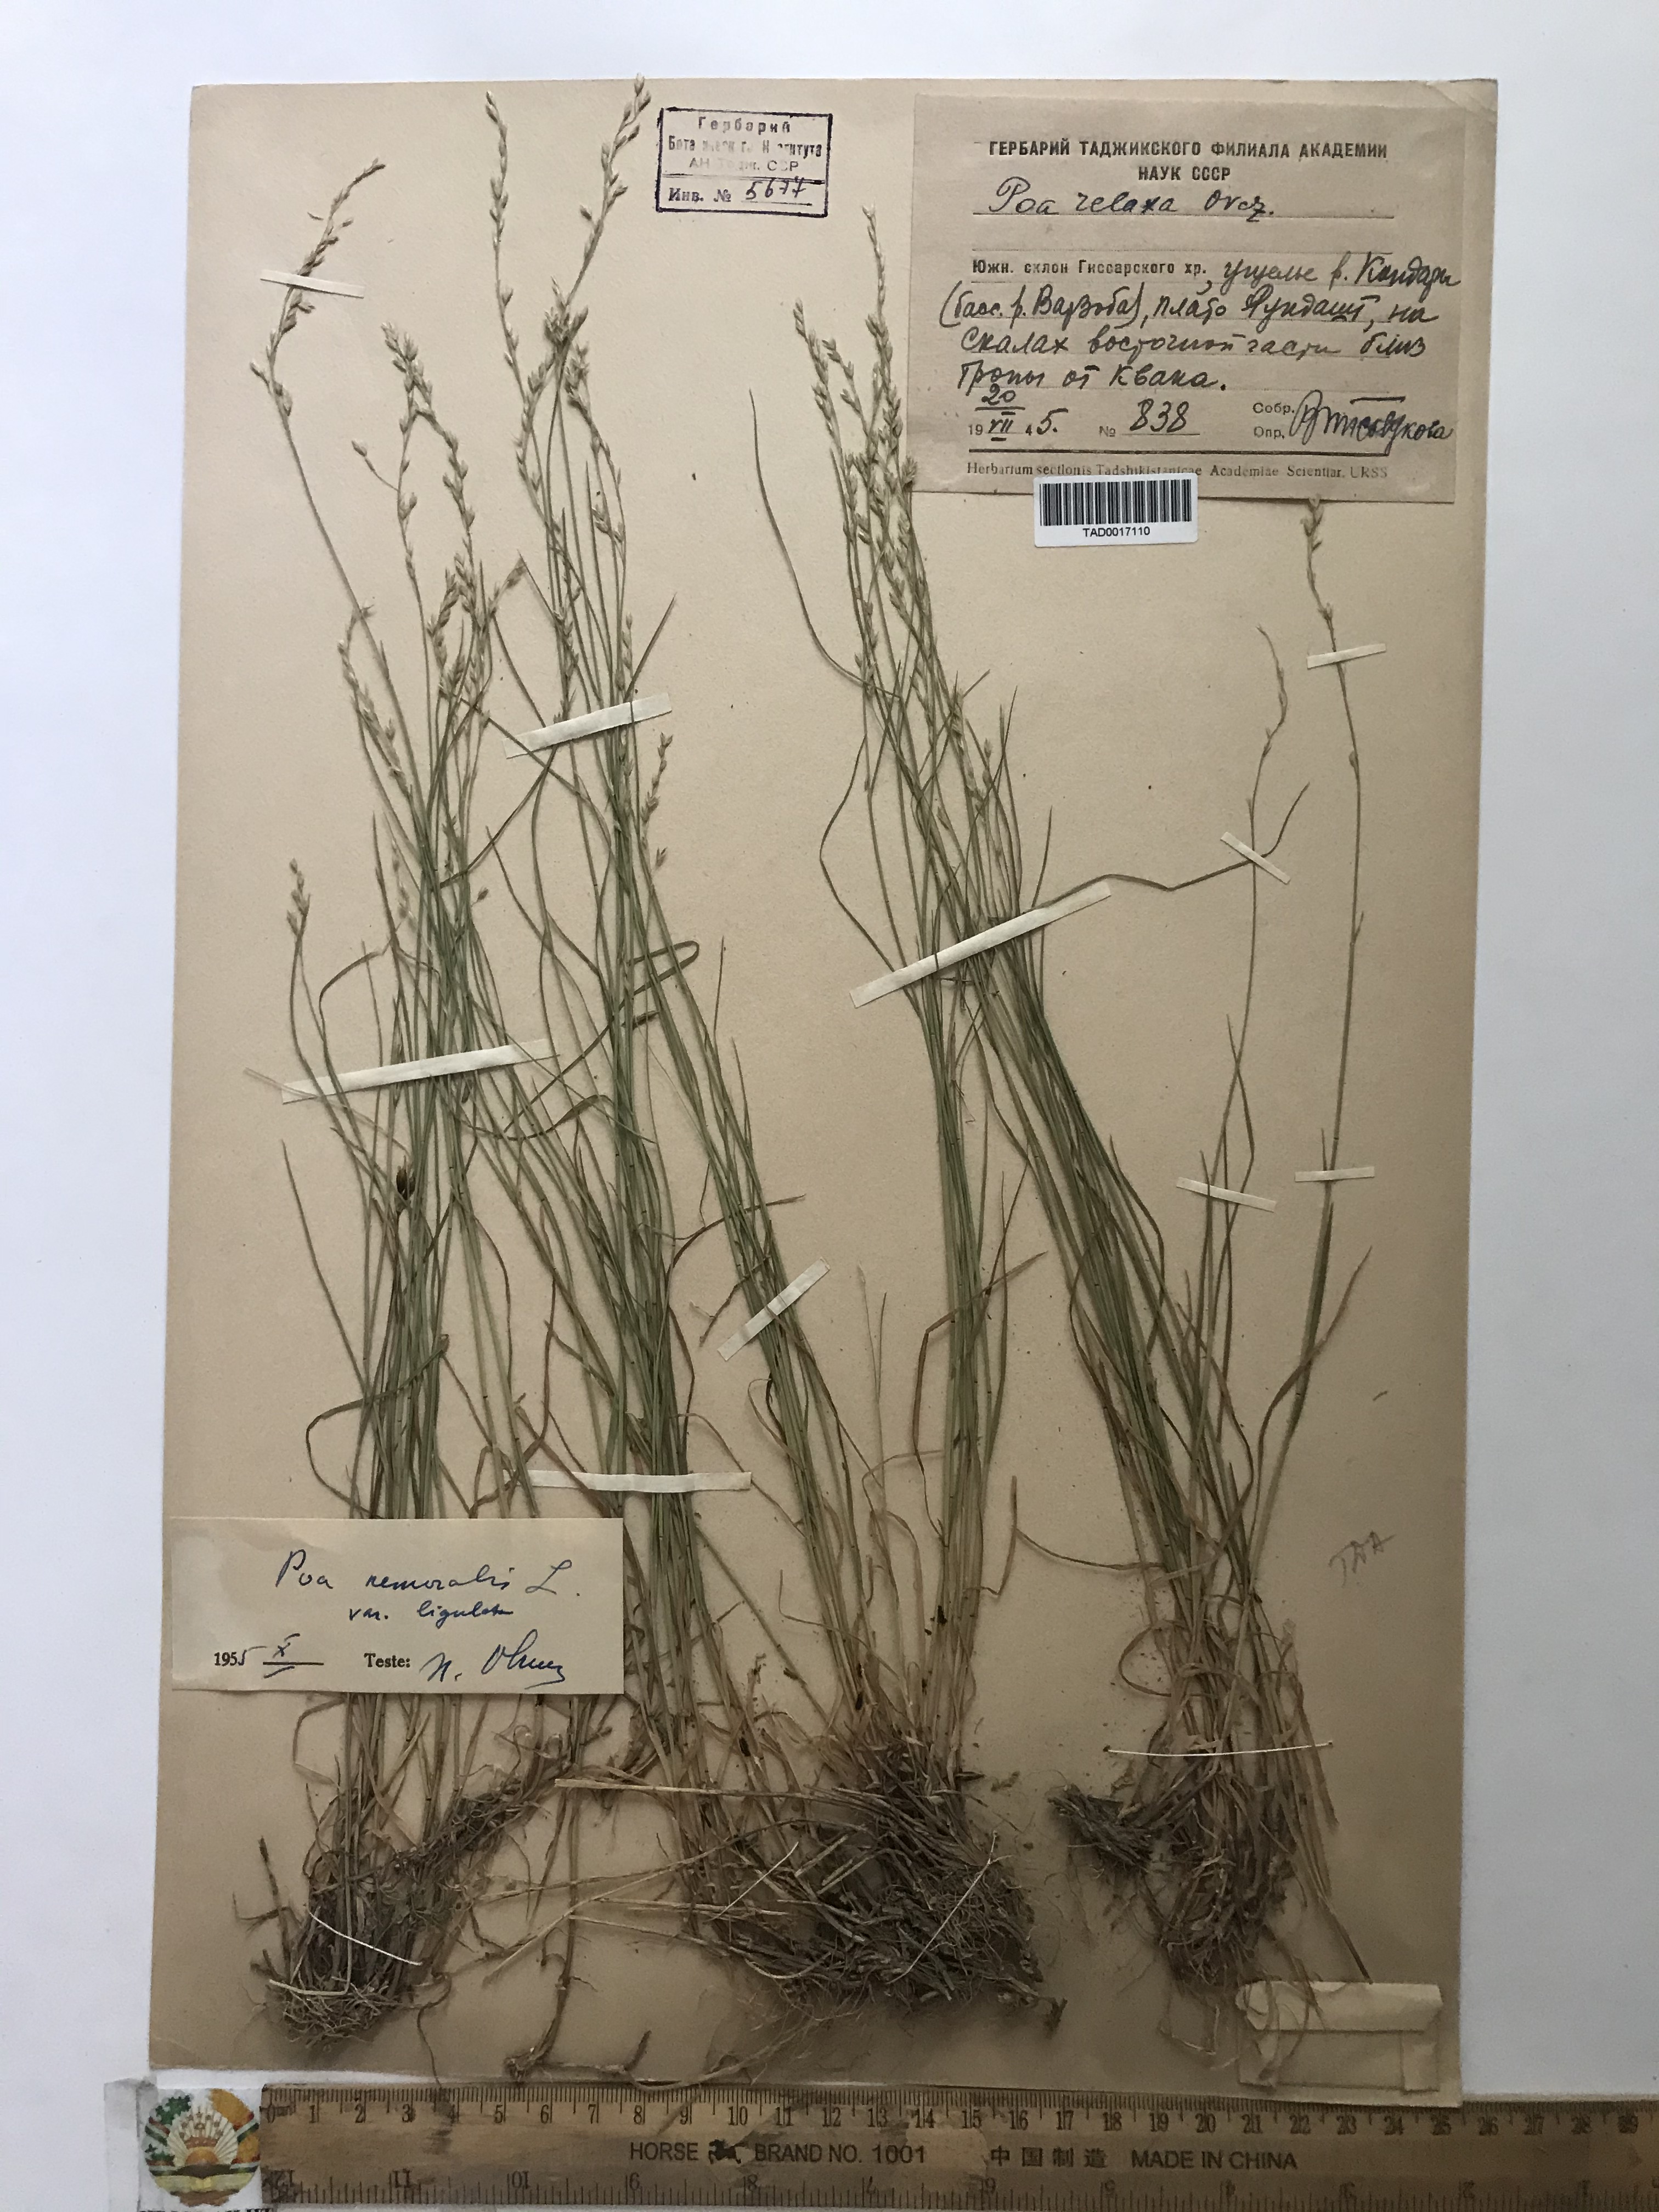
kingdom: Plantae
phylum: Tracheophyta
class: Liliopsida
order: Poales
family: Poaceae
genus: Poa
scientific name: Poa nemoralis
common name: Wood bluegrass
